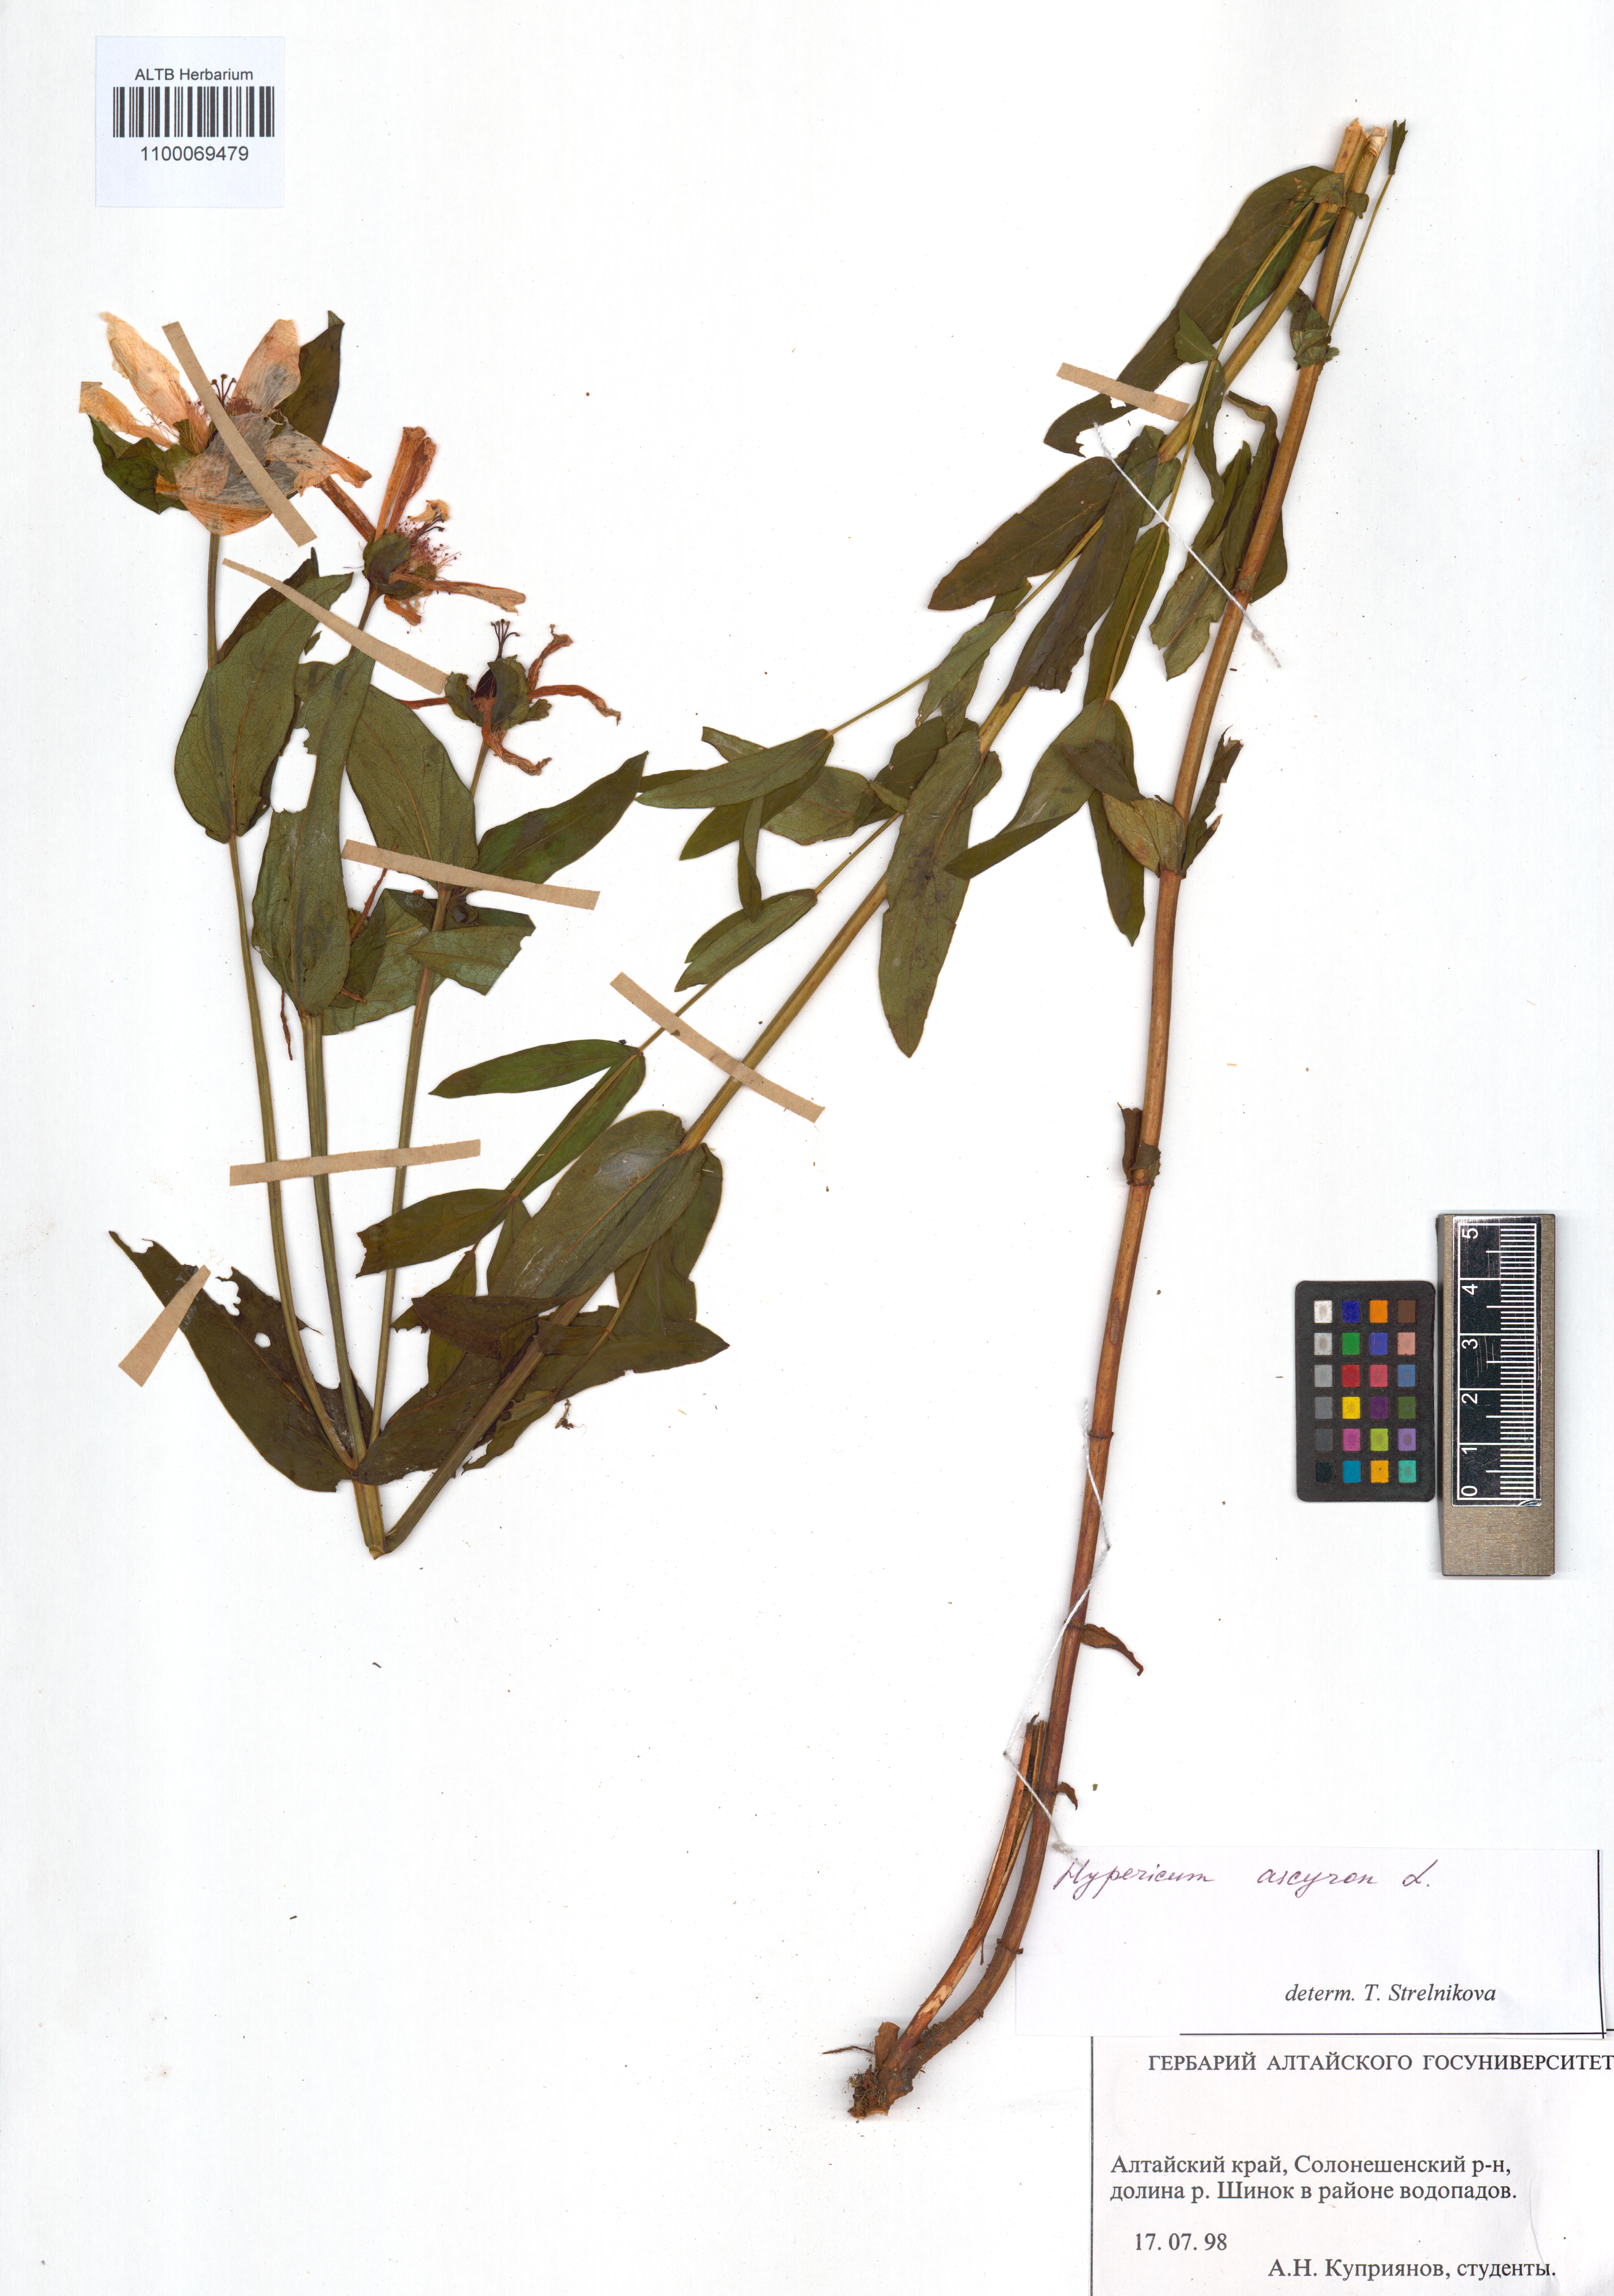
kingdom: Plantae
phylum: Tracheophyta
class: Magnoliopsida
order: Malpighiales
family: Hypericaceae
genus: Hypericum
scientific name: Hypericum ascyron
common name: Giant st. john's-wort
